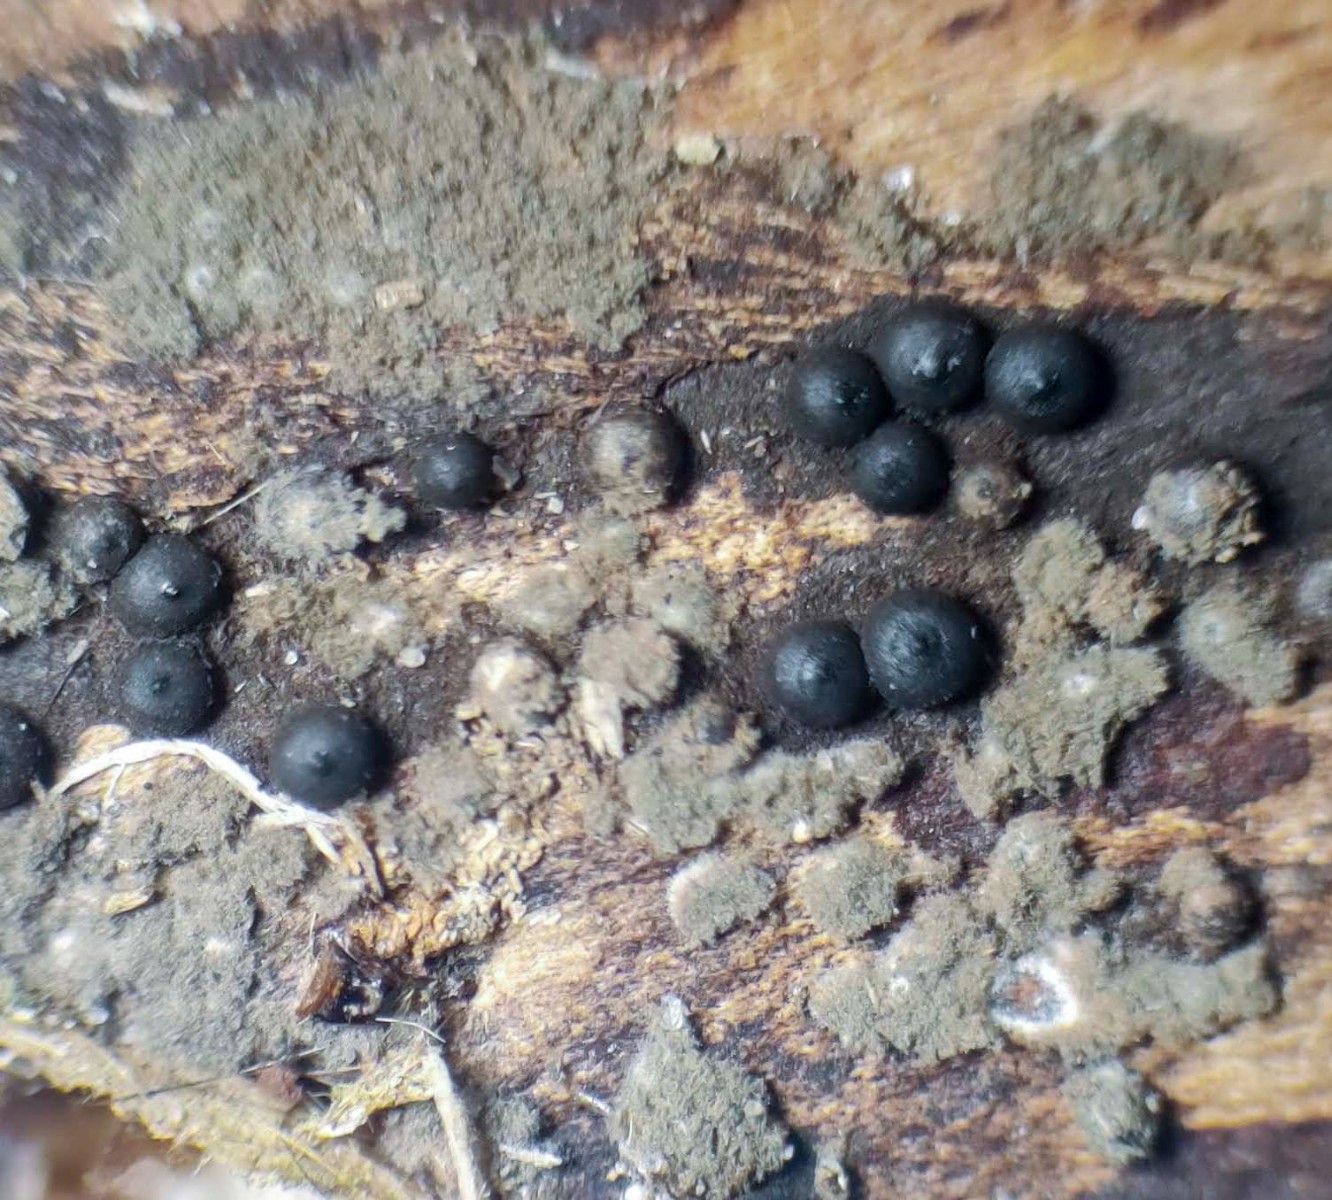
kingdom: Fungi
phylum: Ascomycota
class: Sordariomycetes
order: Xylariales
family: Xylariaceae
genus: Rosellinia
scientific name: Rosellinia
